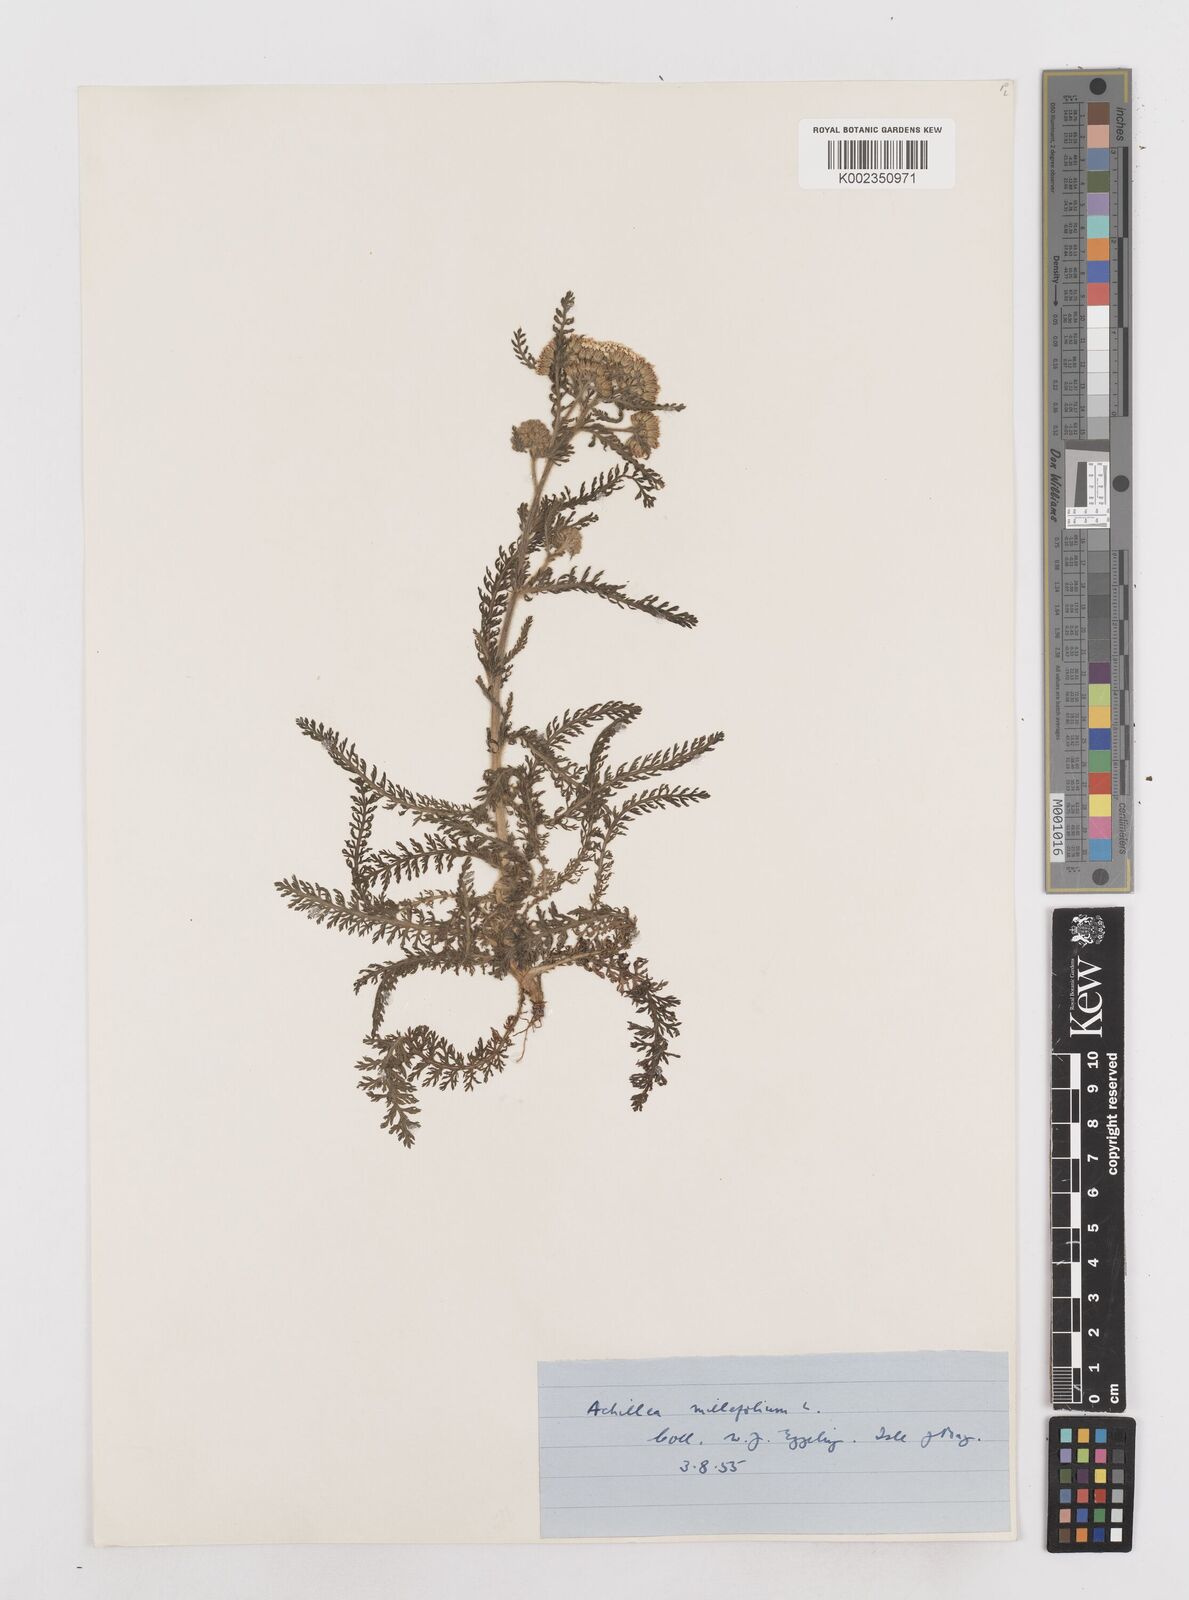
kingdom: Plantae
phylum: Tracheophyta
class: Magnoliopsida
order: Asterales
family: Asteraceae
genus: Achillea
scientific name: Achillea millefolium
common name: Yarrow
